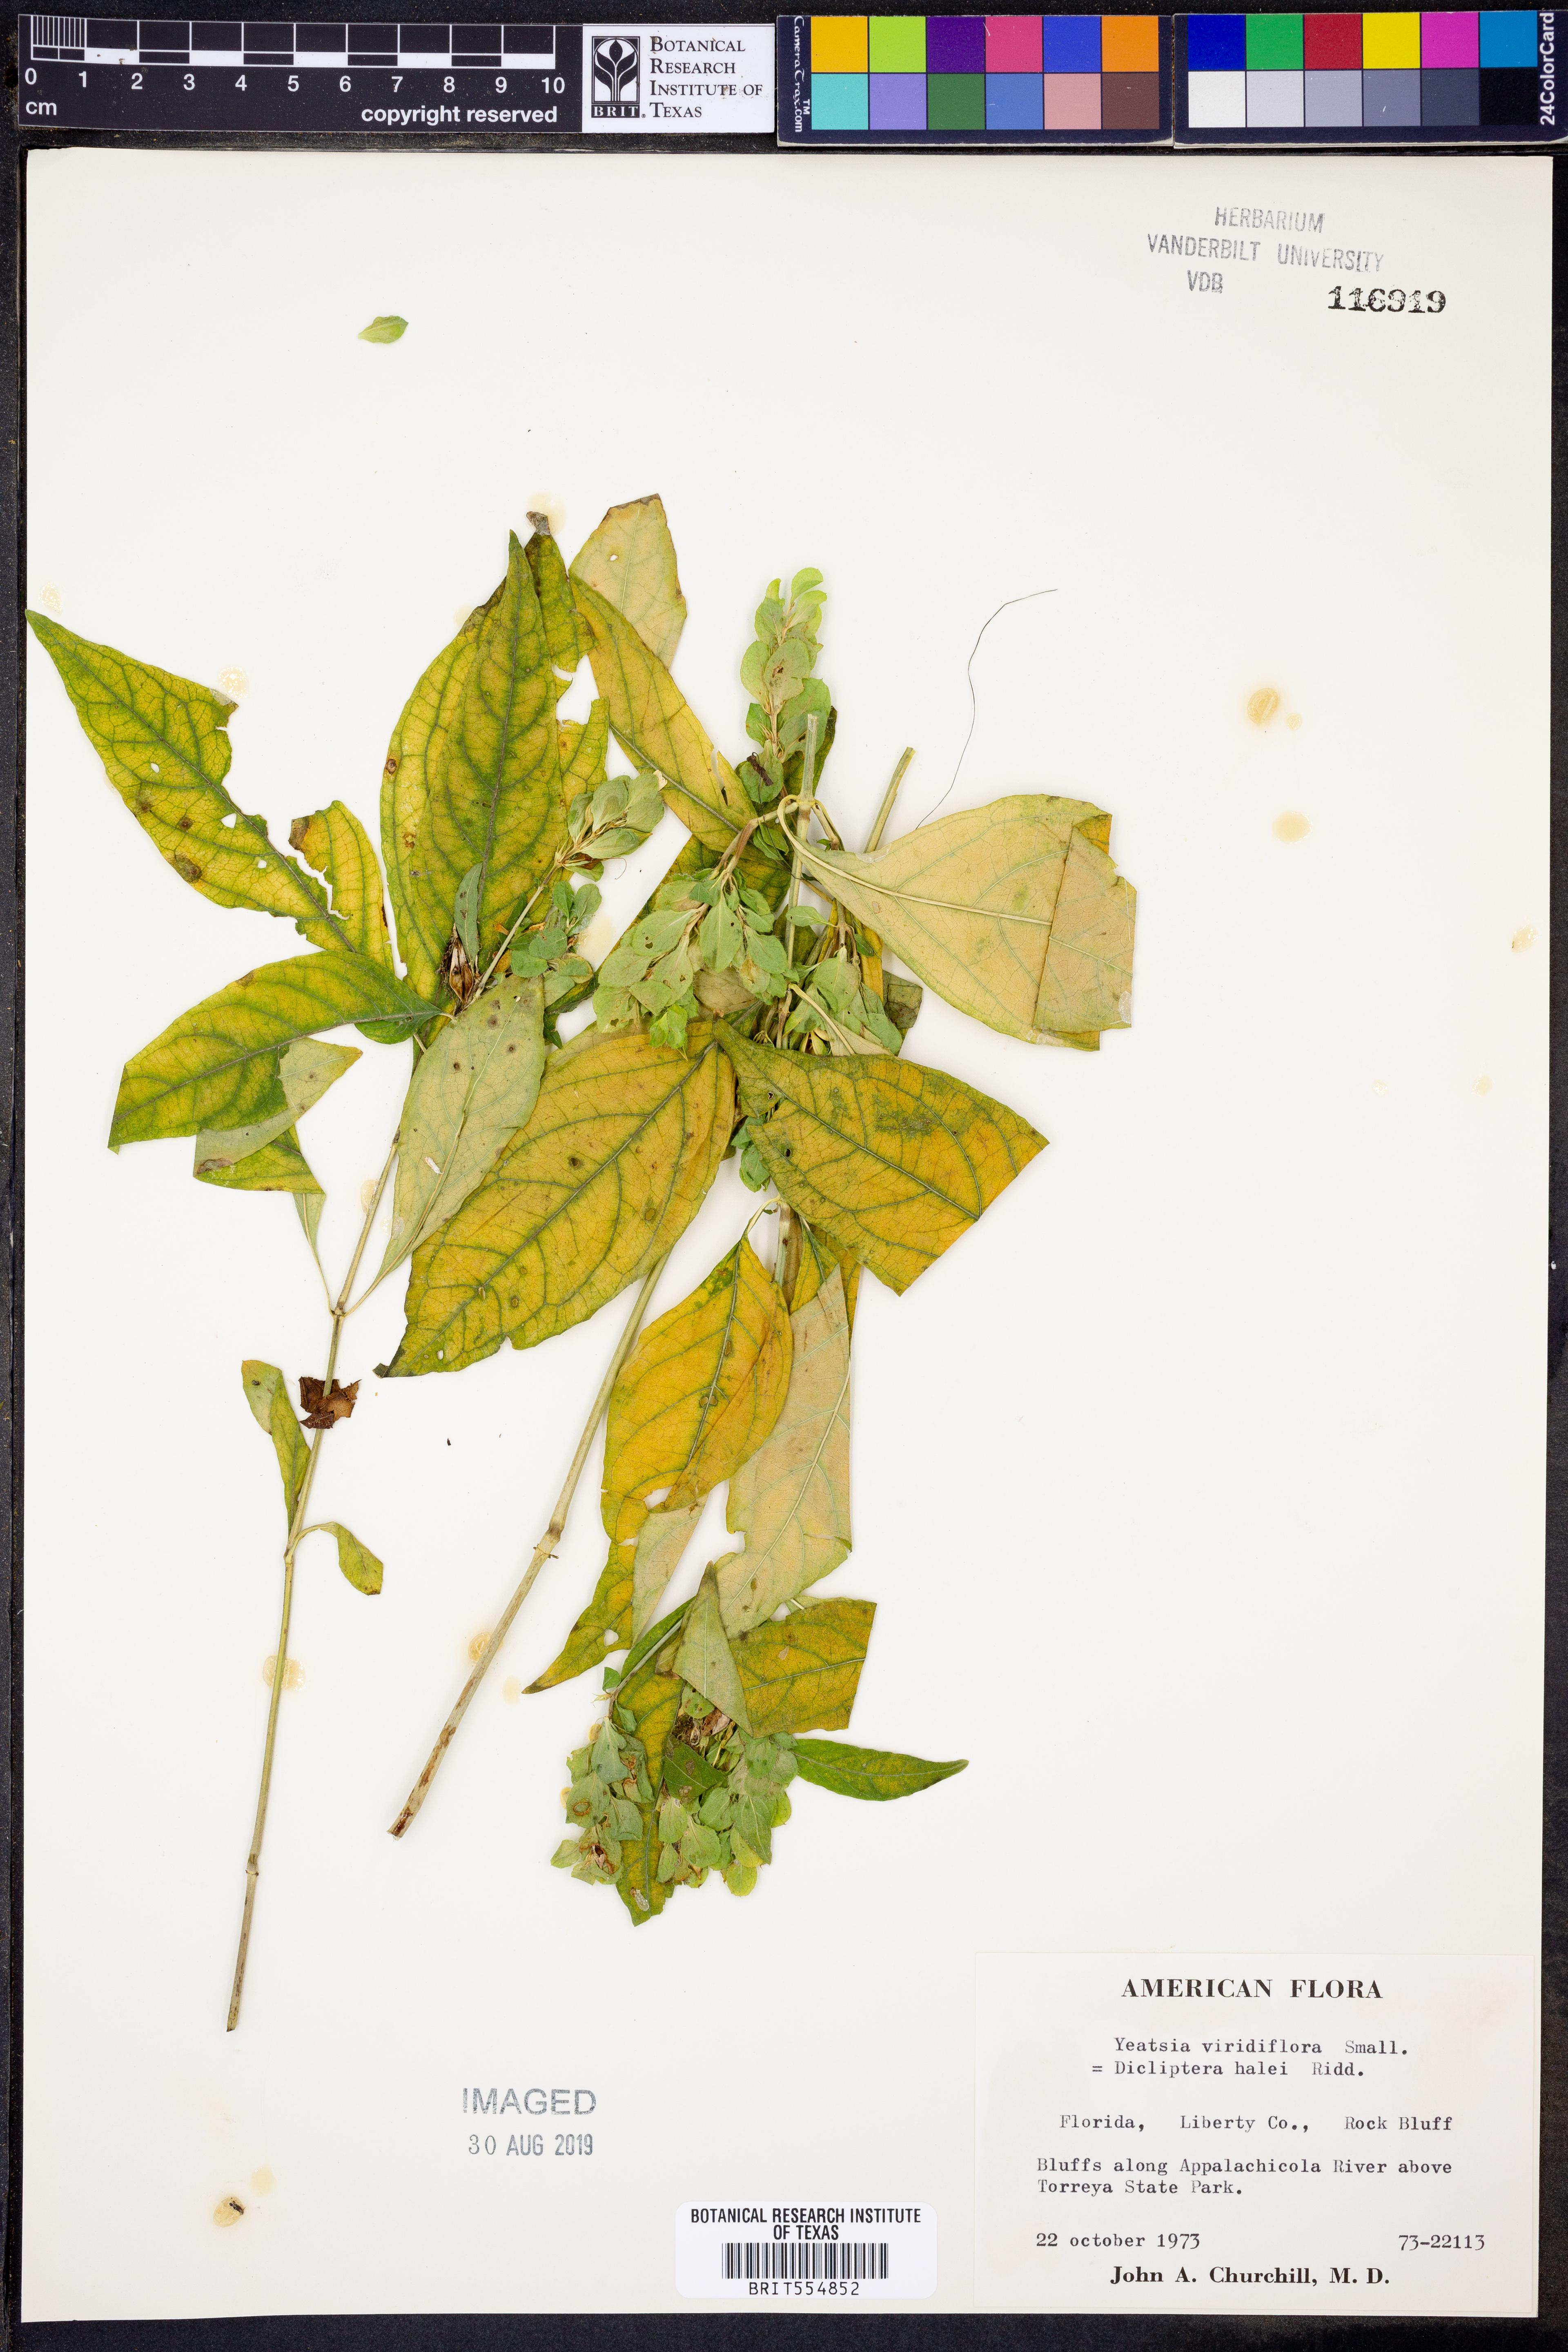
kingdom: Plantae
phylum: Tracheophyta
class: Magnoliopsida
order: Lamiales
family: Acanthaceae
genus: Yeatesia
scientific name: Yeatesia viridiflora
